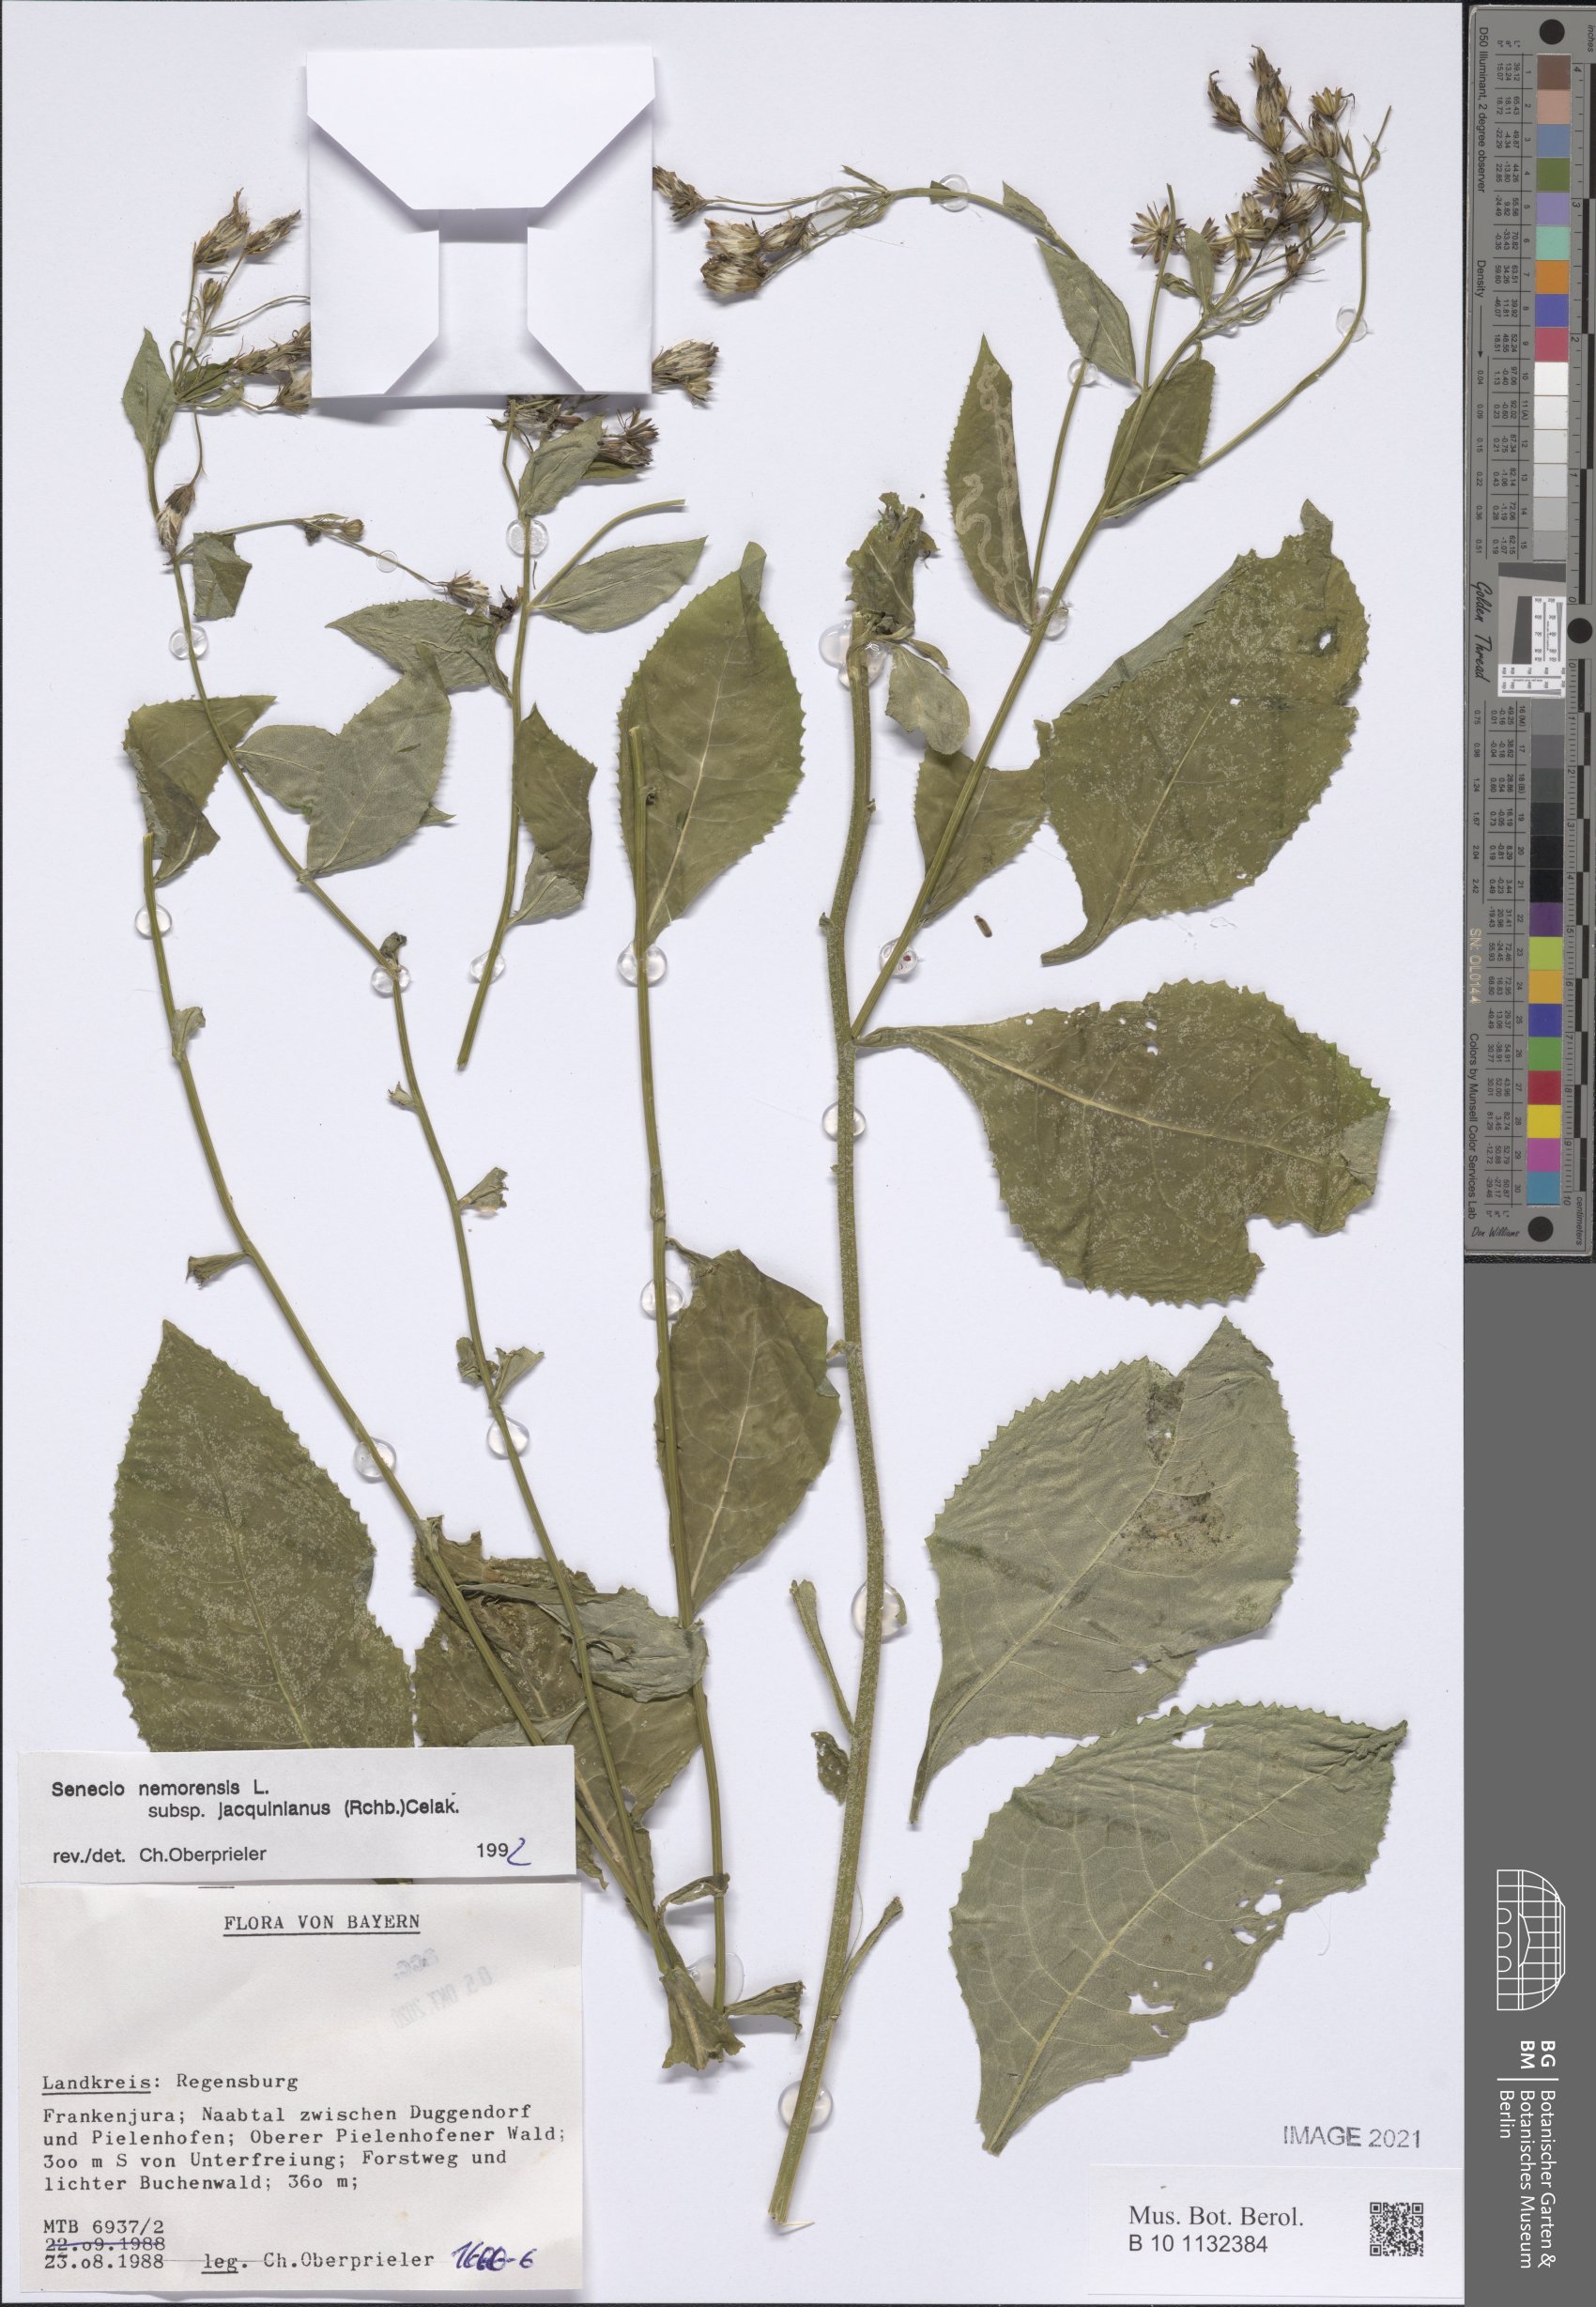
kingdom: Plantae
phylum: Tracheophyta
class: Magnoliopsida
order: Asterales
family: Asteraceae
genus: Senecio
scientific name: Senecio germanicus
